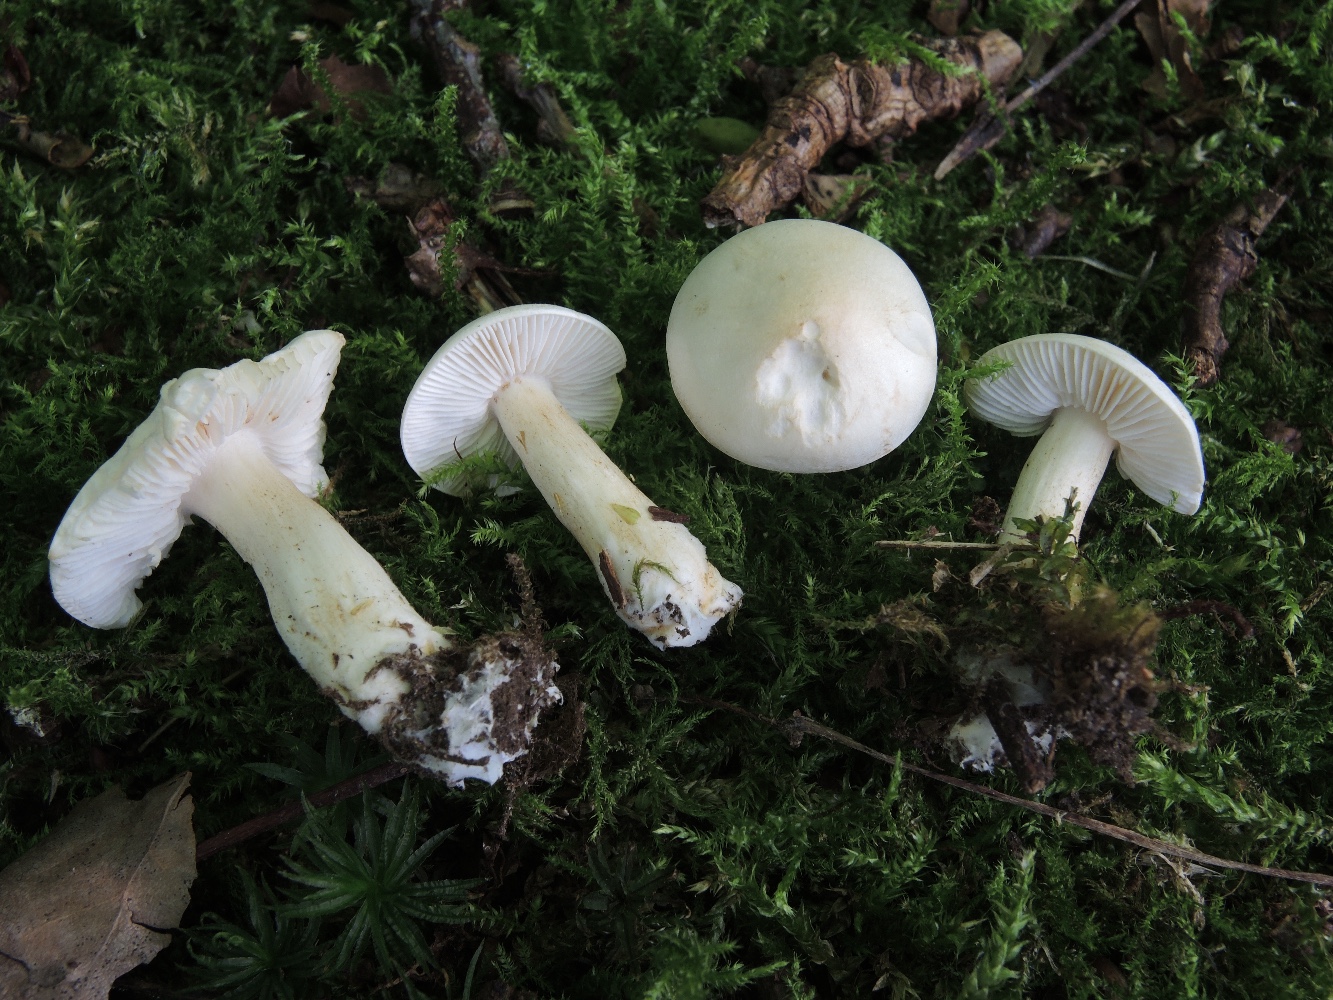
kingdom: Fungi
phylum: Basidiomycota
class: Agaricomycetes
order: Agaricales
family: Tricholomataceae
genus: Tricholoma
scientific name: Tricholoma album
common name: honning-ridderhat
